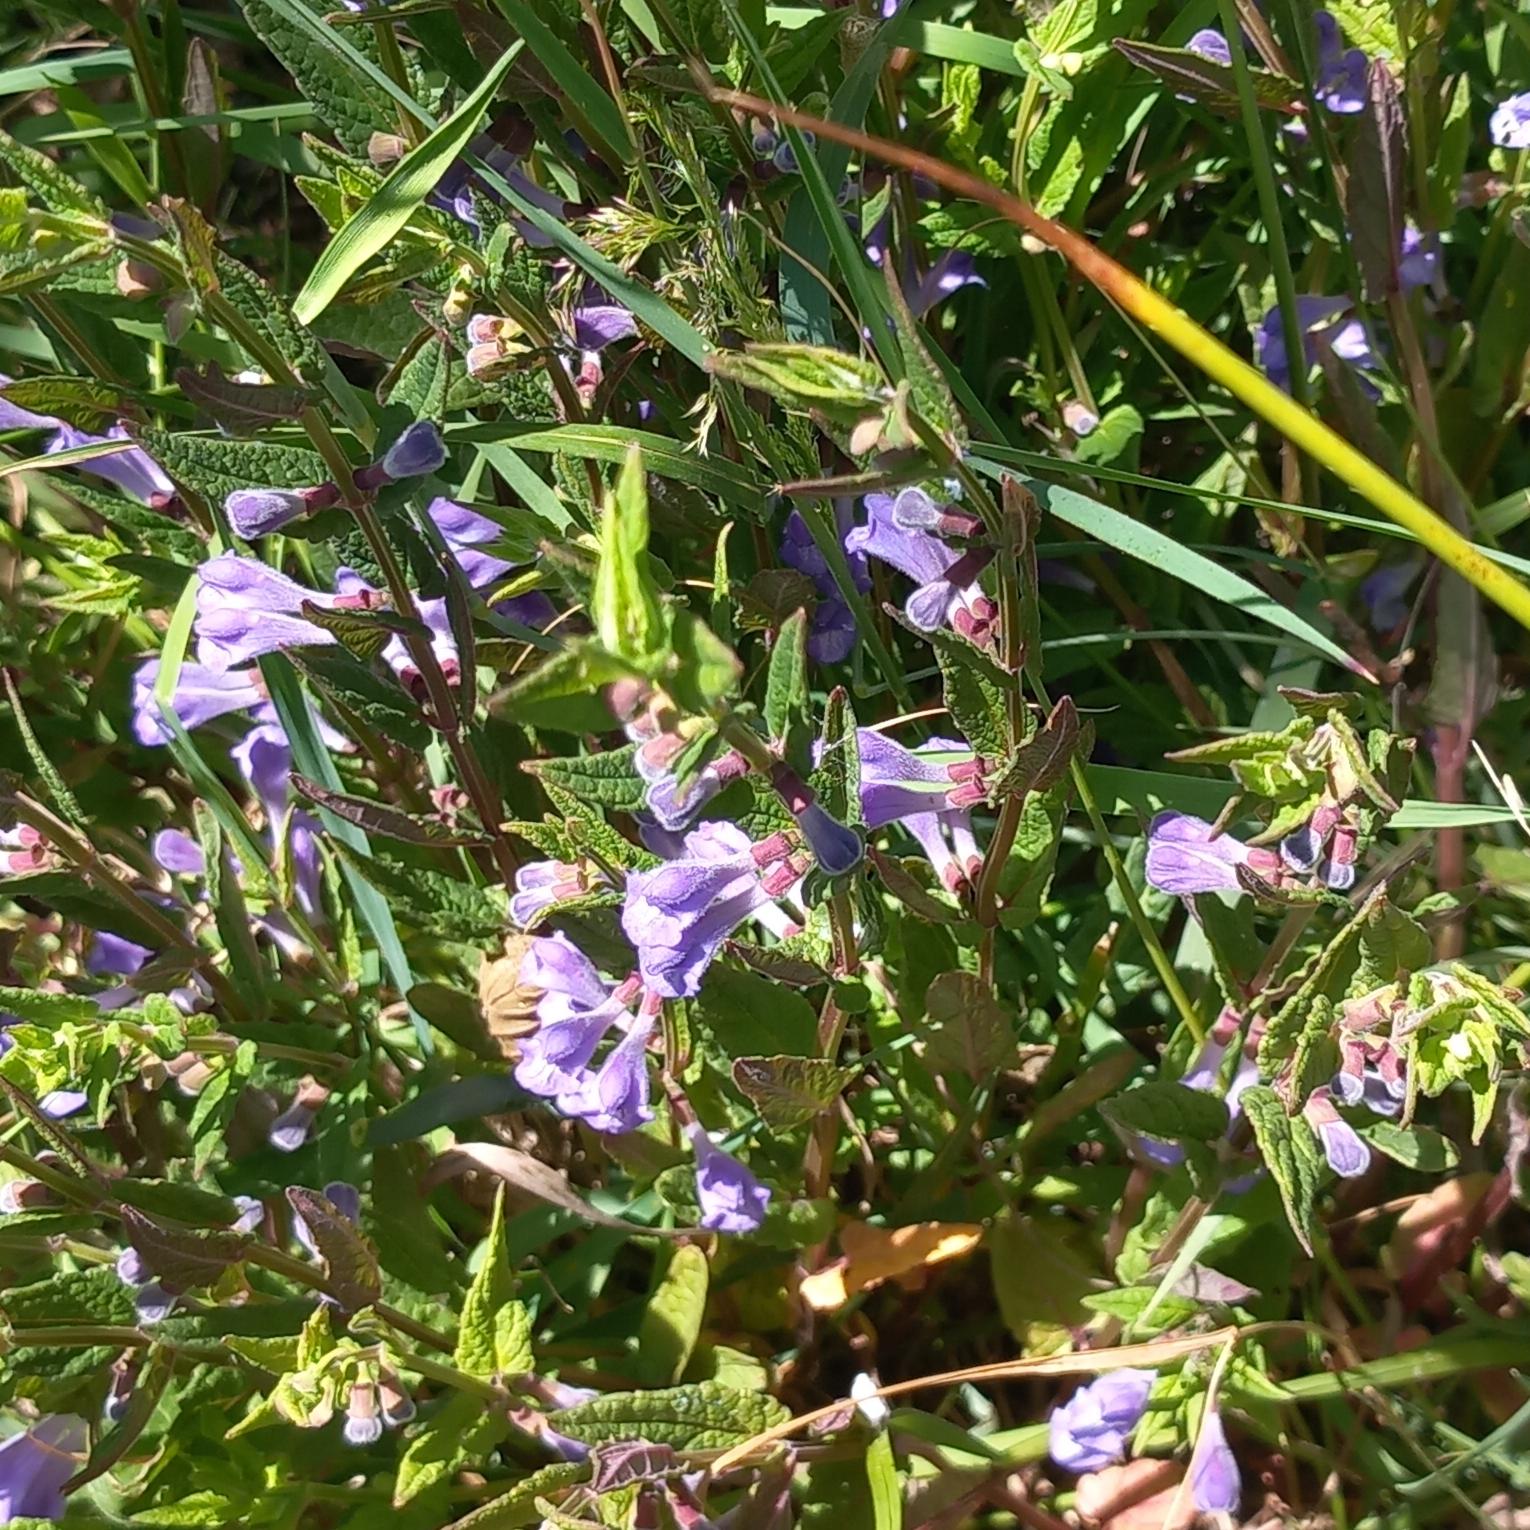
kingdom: Plantae
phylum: Tracheophyta
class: Magnoliopsida
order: Lamiales
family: Lamiaceae
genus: Scutellaria
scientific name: Scutellaria galericulata
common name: Almindelig skjolddrager
